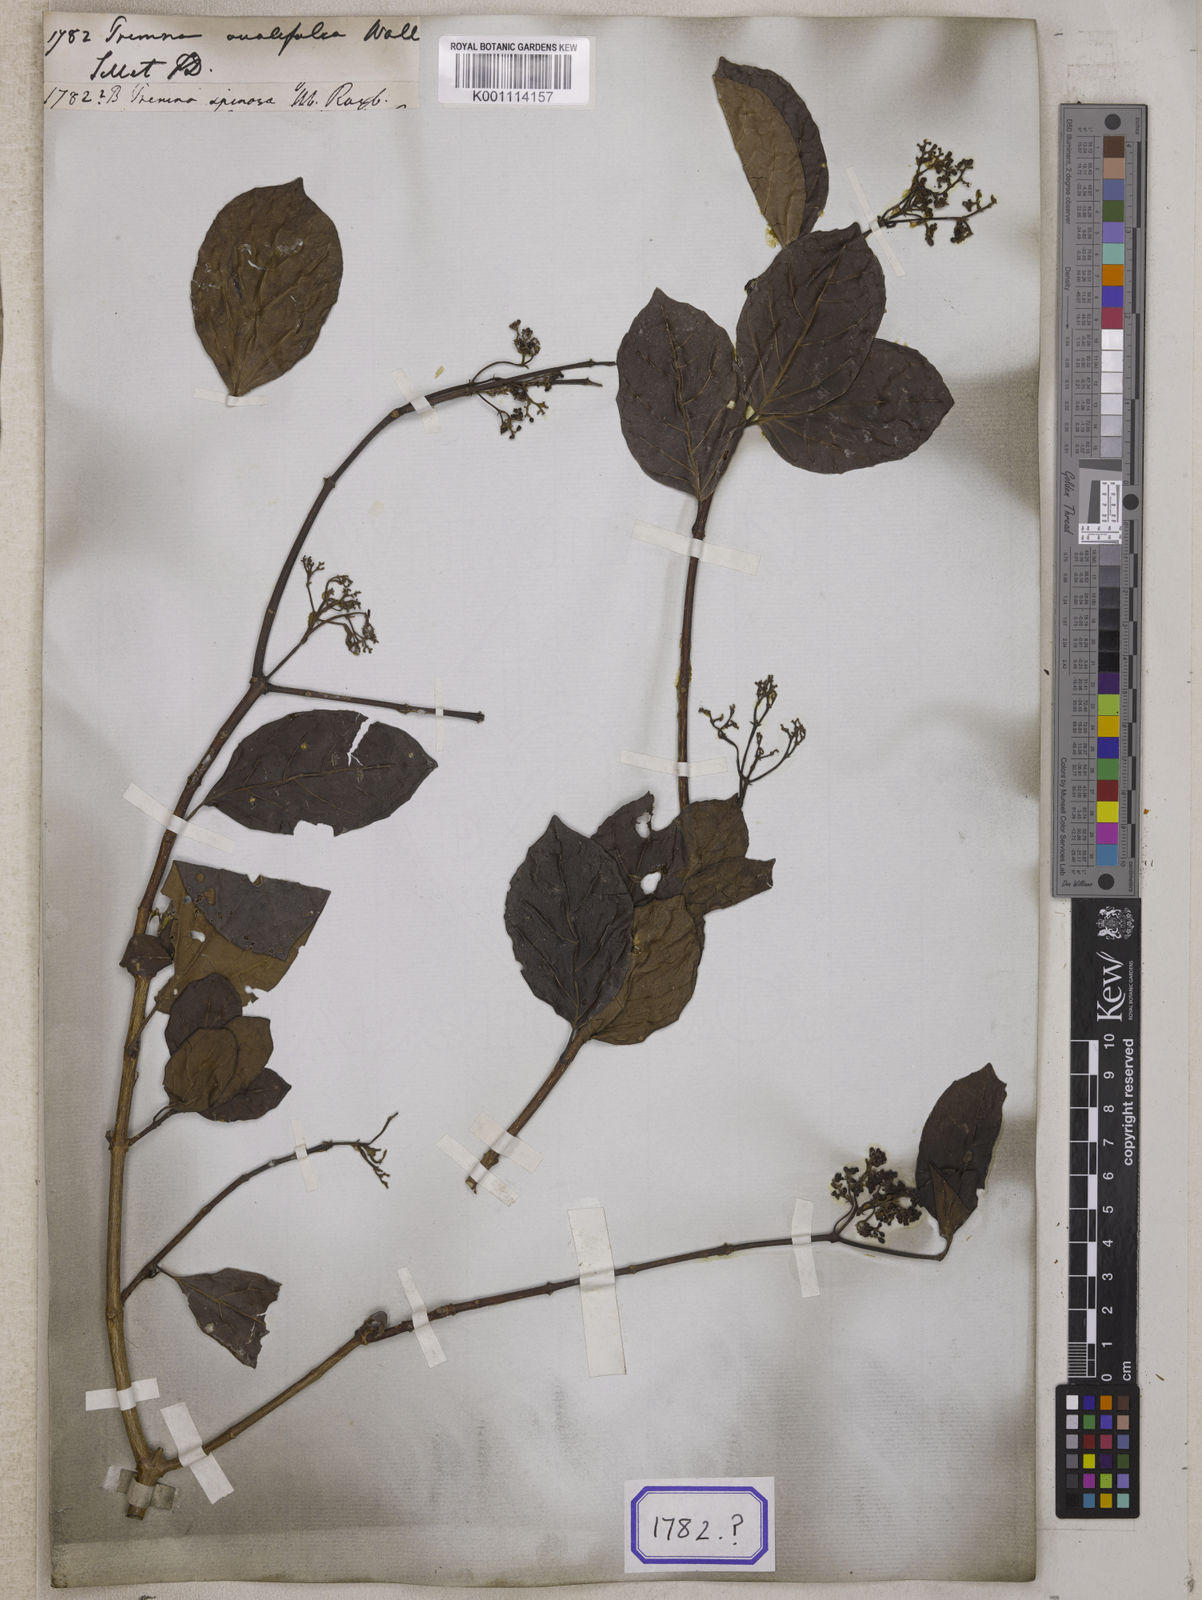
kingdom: Plantae
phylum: Tracheophyta
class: Magnoliopsida
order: Lamiales
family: Lamiaceae
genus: Premna
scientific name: Premna
